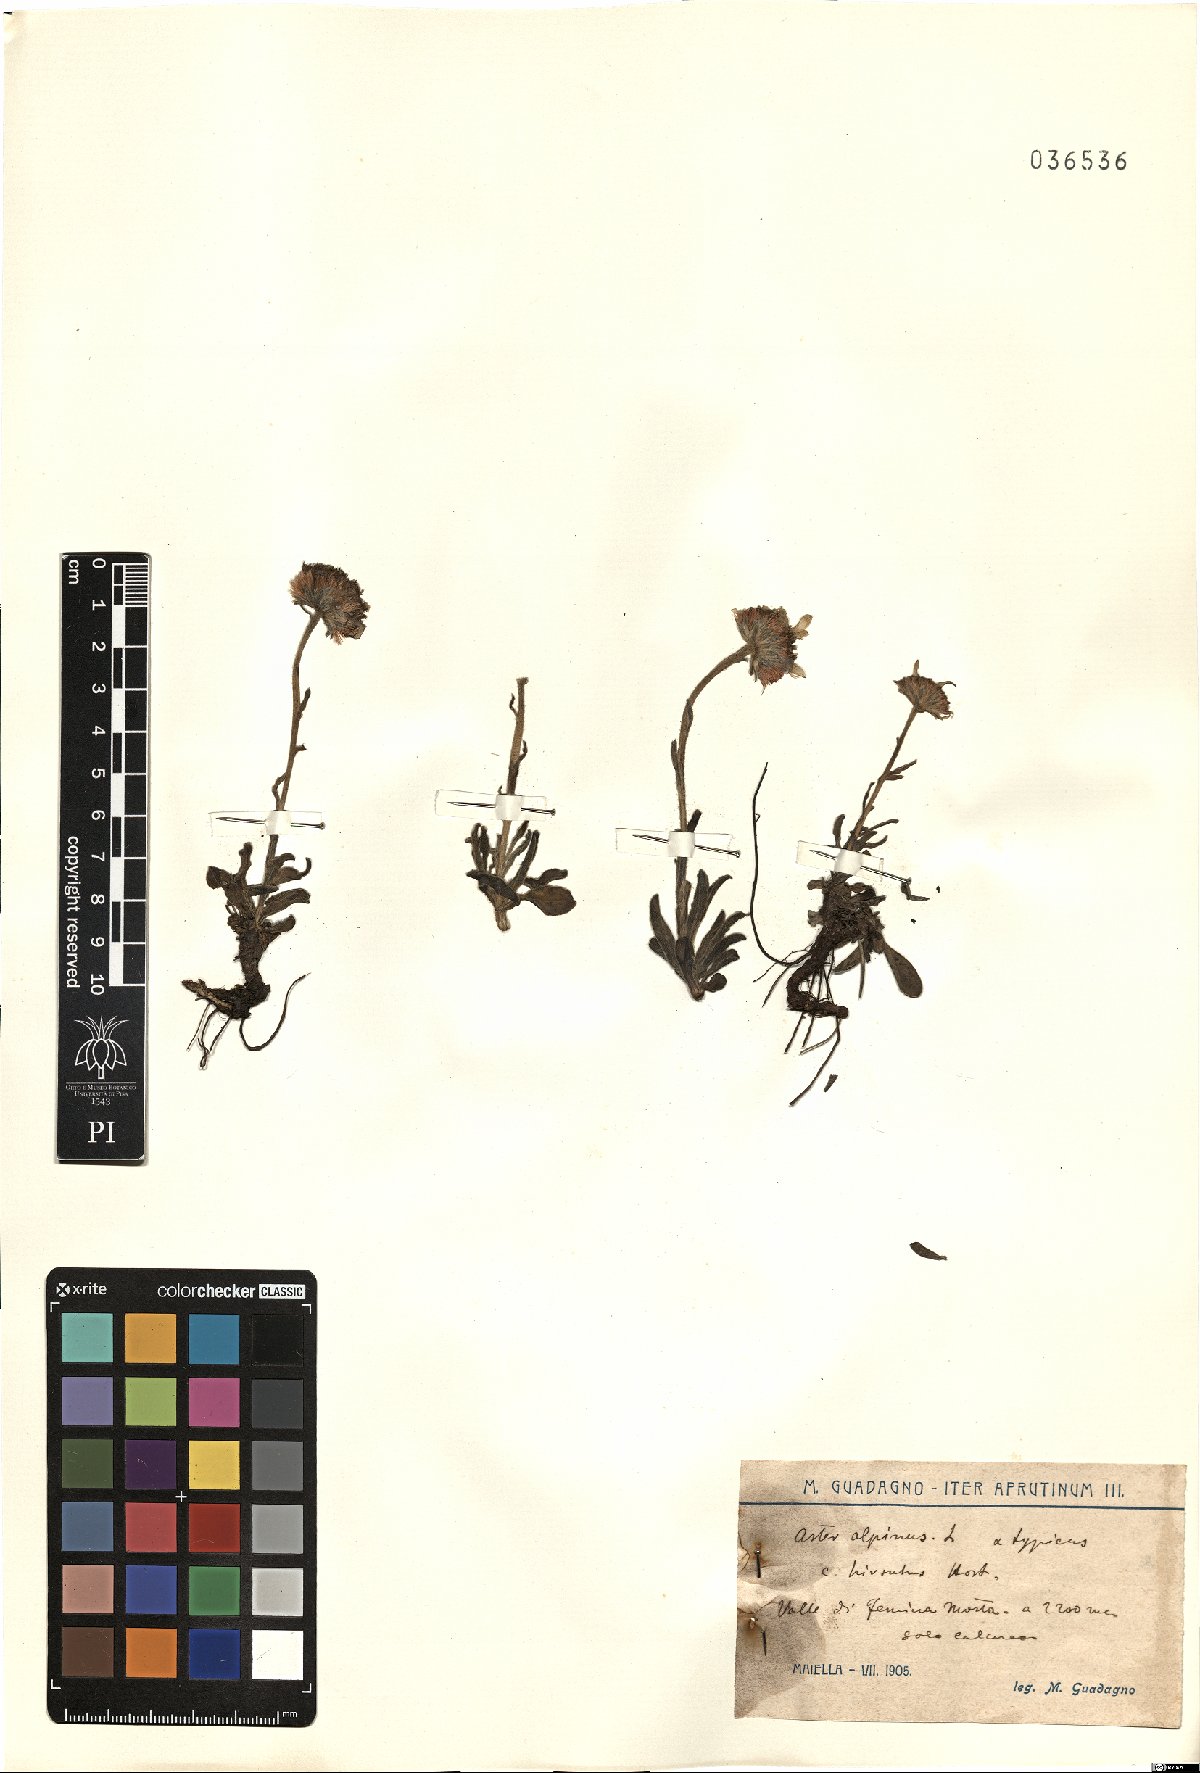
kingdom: Plantae
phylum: Tracheophyta
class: Magnoliopsida
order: Asterales
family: Asteraceae
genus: Aster
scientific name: Aster alpinus
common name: Alpine aster
